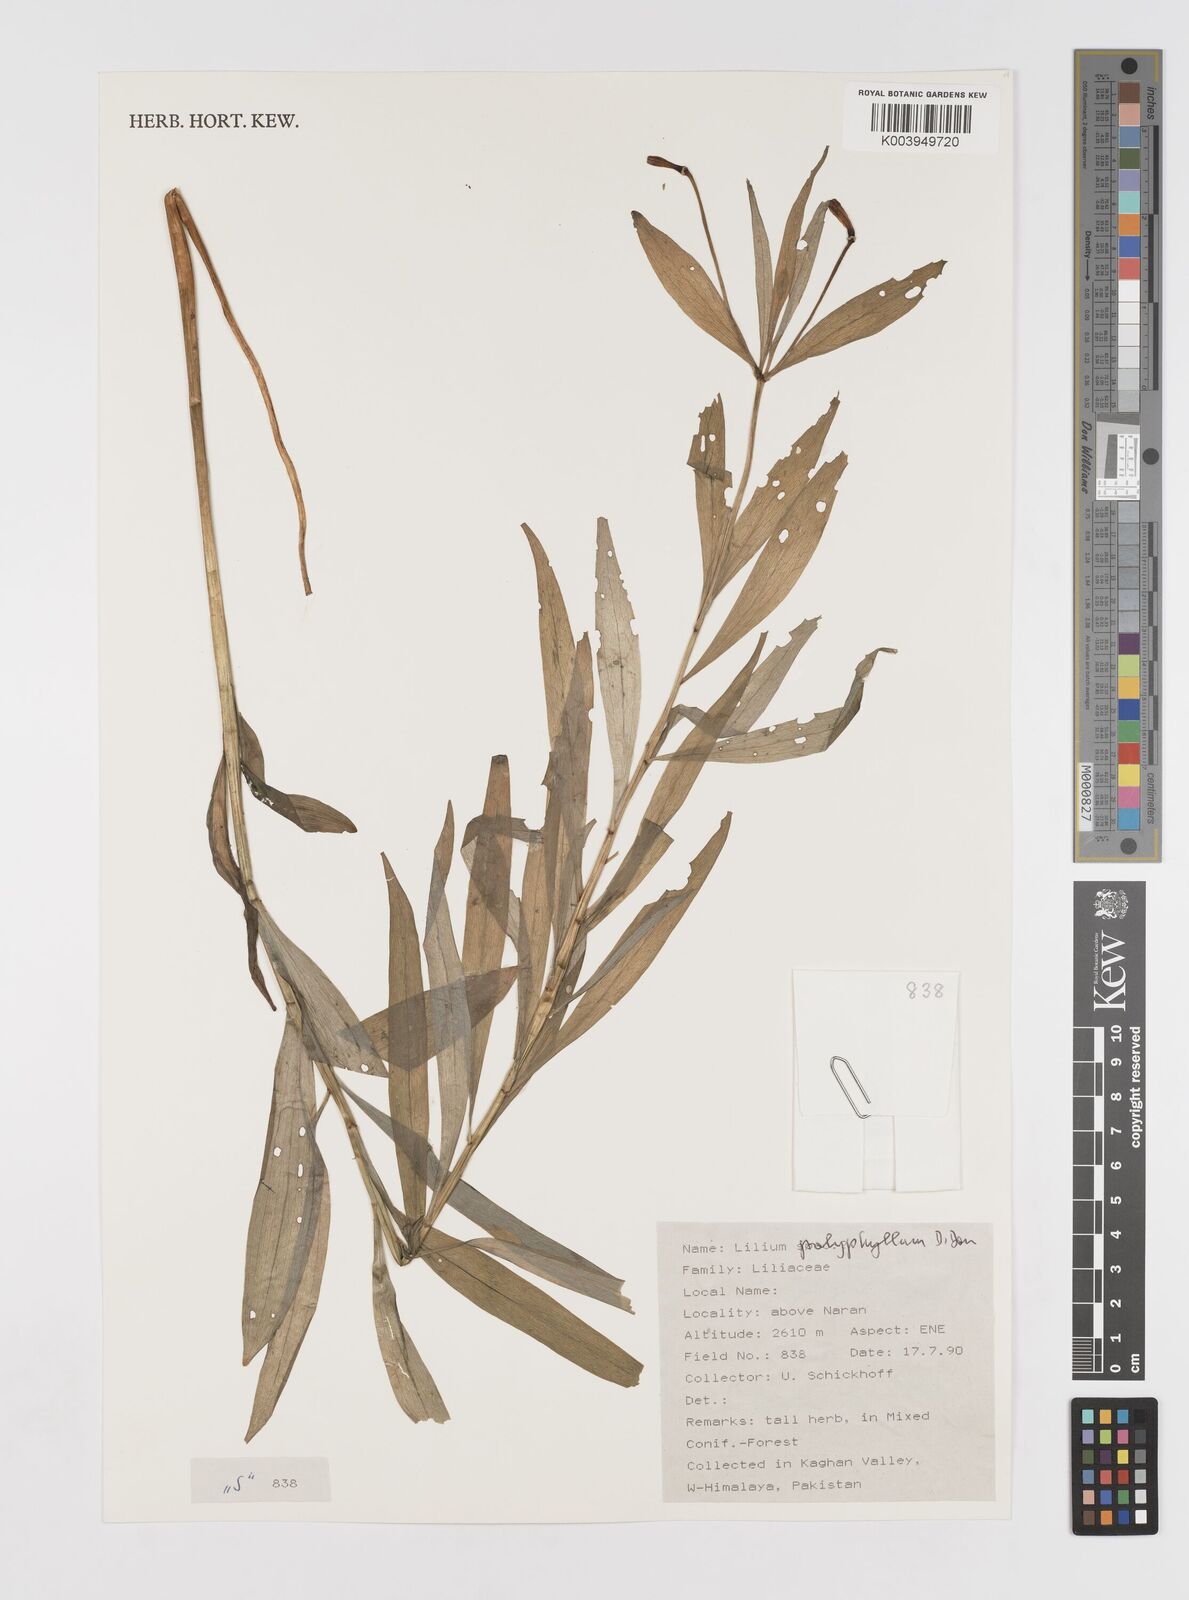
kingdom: Plantae
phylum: Tracheophyta
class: Liliopsida
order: Liliales
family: Liliaceae
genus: Lilium
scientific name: Lilium polyphyllum
